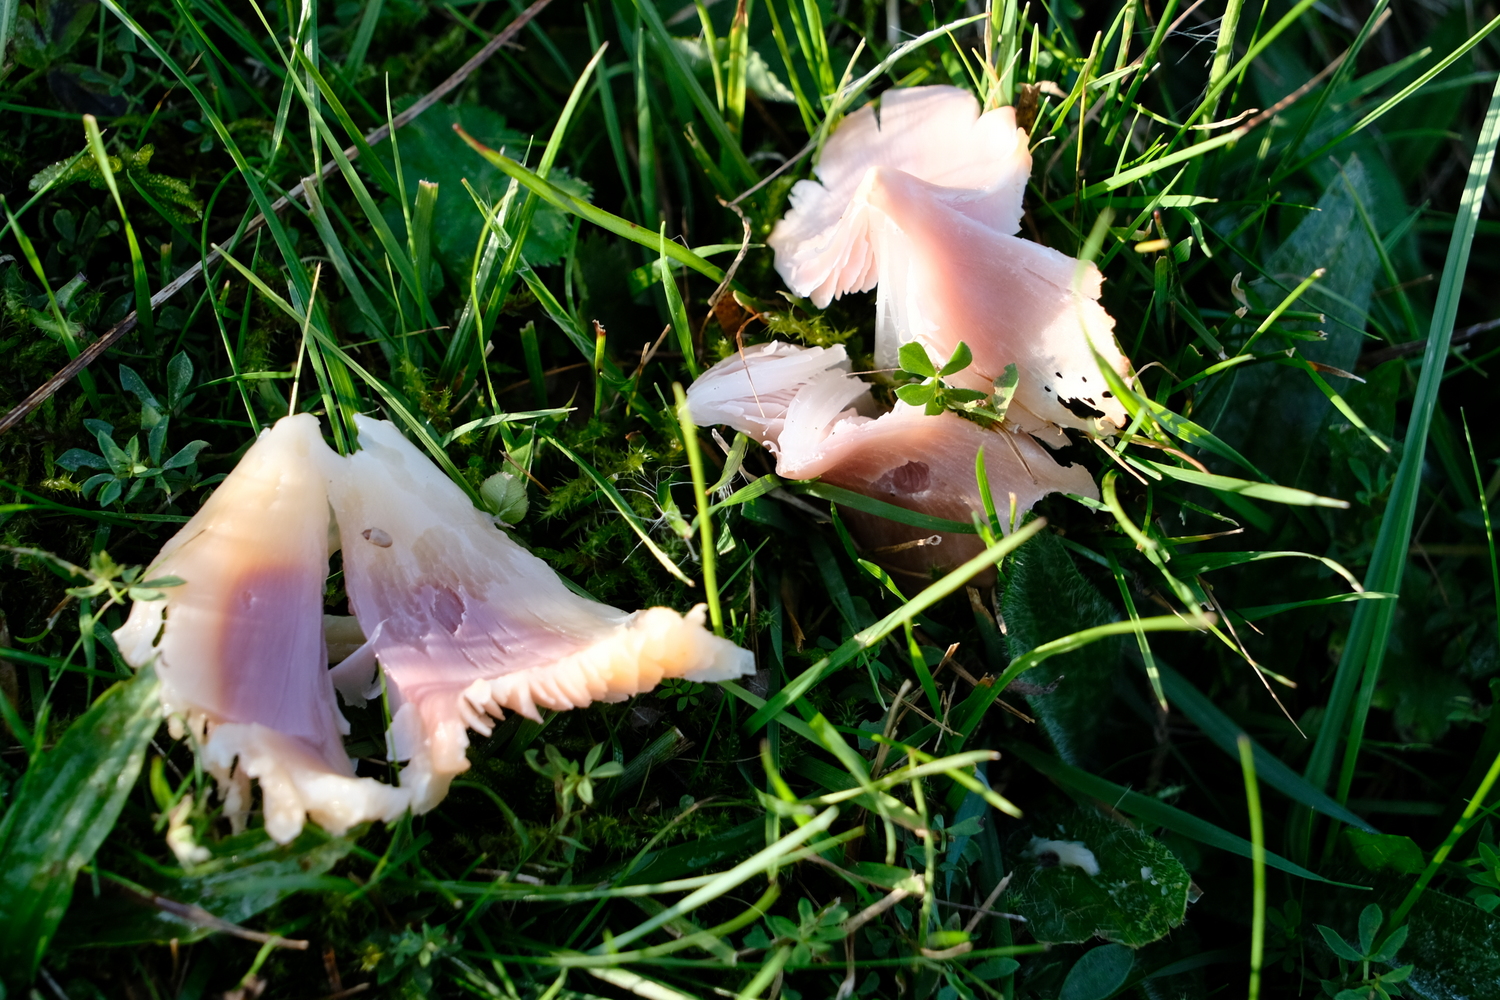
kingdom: Fungi
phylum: Basidiomycota
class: Agaricomycetes
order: Agaricales
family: Hygrophoraceae
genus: Porpolomopsis
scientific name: Porpolomopsis calyptriformis
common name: rosenrød vokshat
